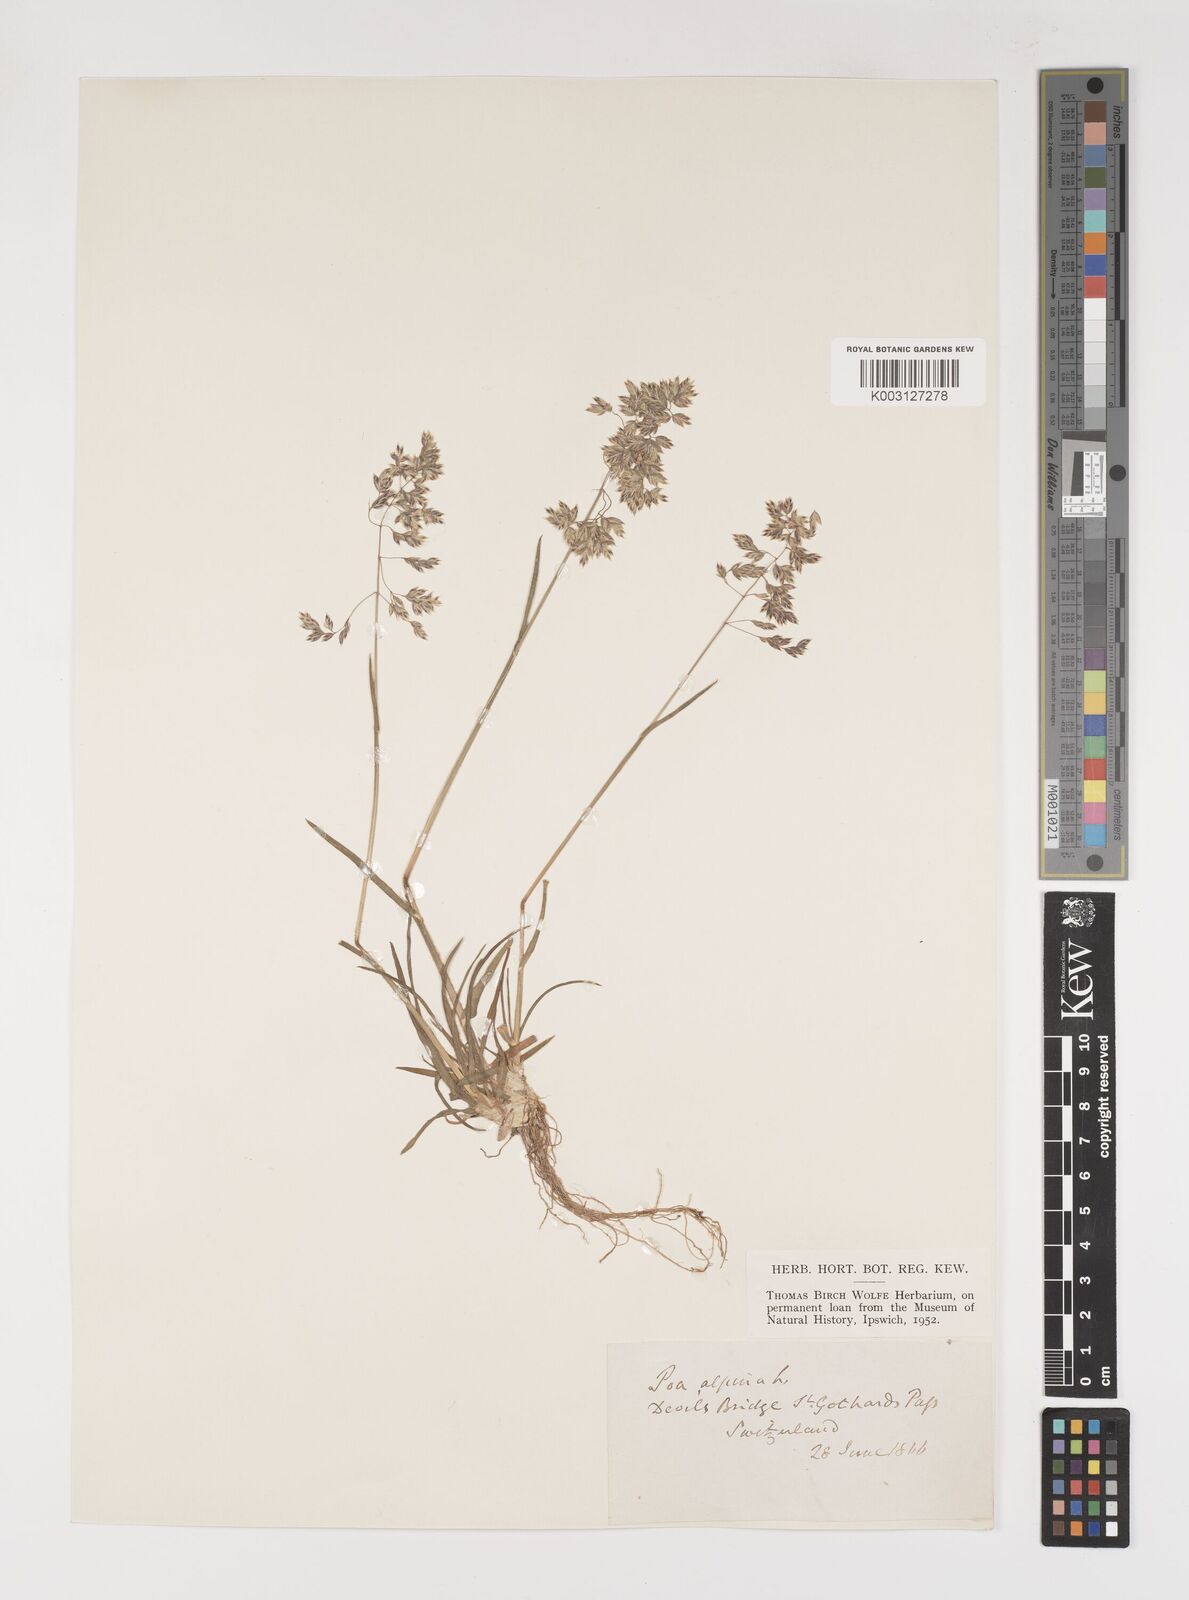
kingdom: Plantae
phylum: Tracheophyta
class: Liliopsida
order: Poales
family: Poaceae
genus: Poa
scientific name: Poa alpina
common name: Alpine bluegrass
